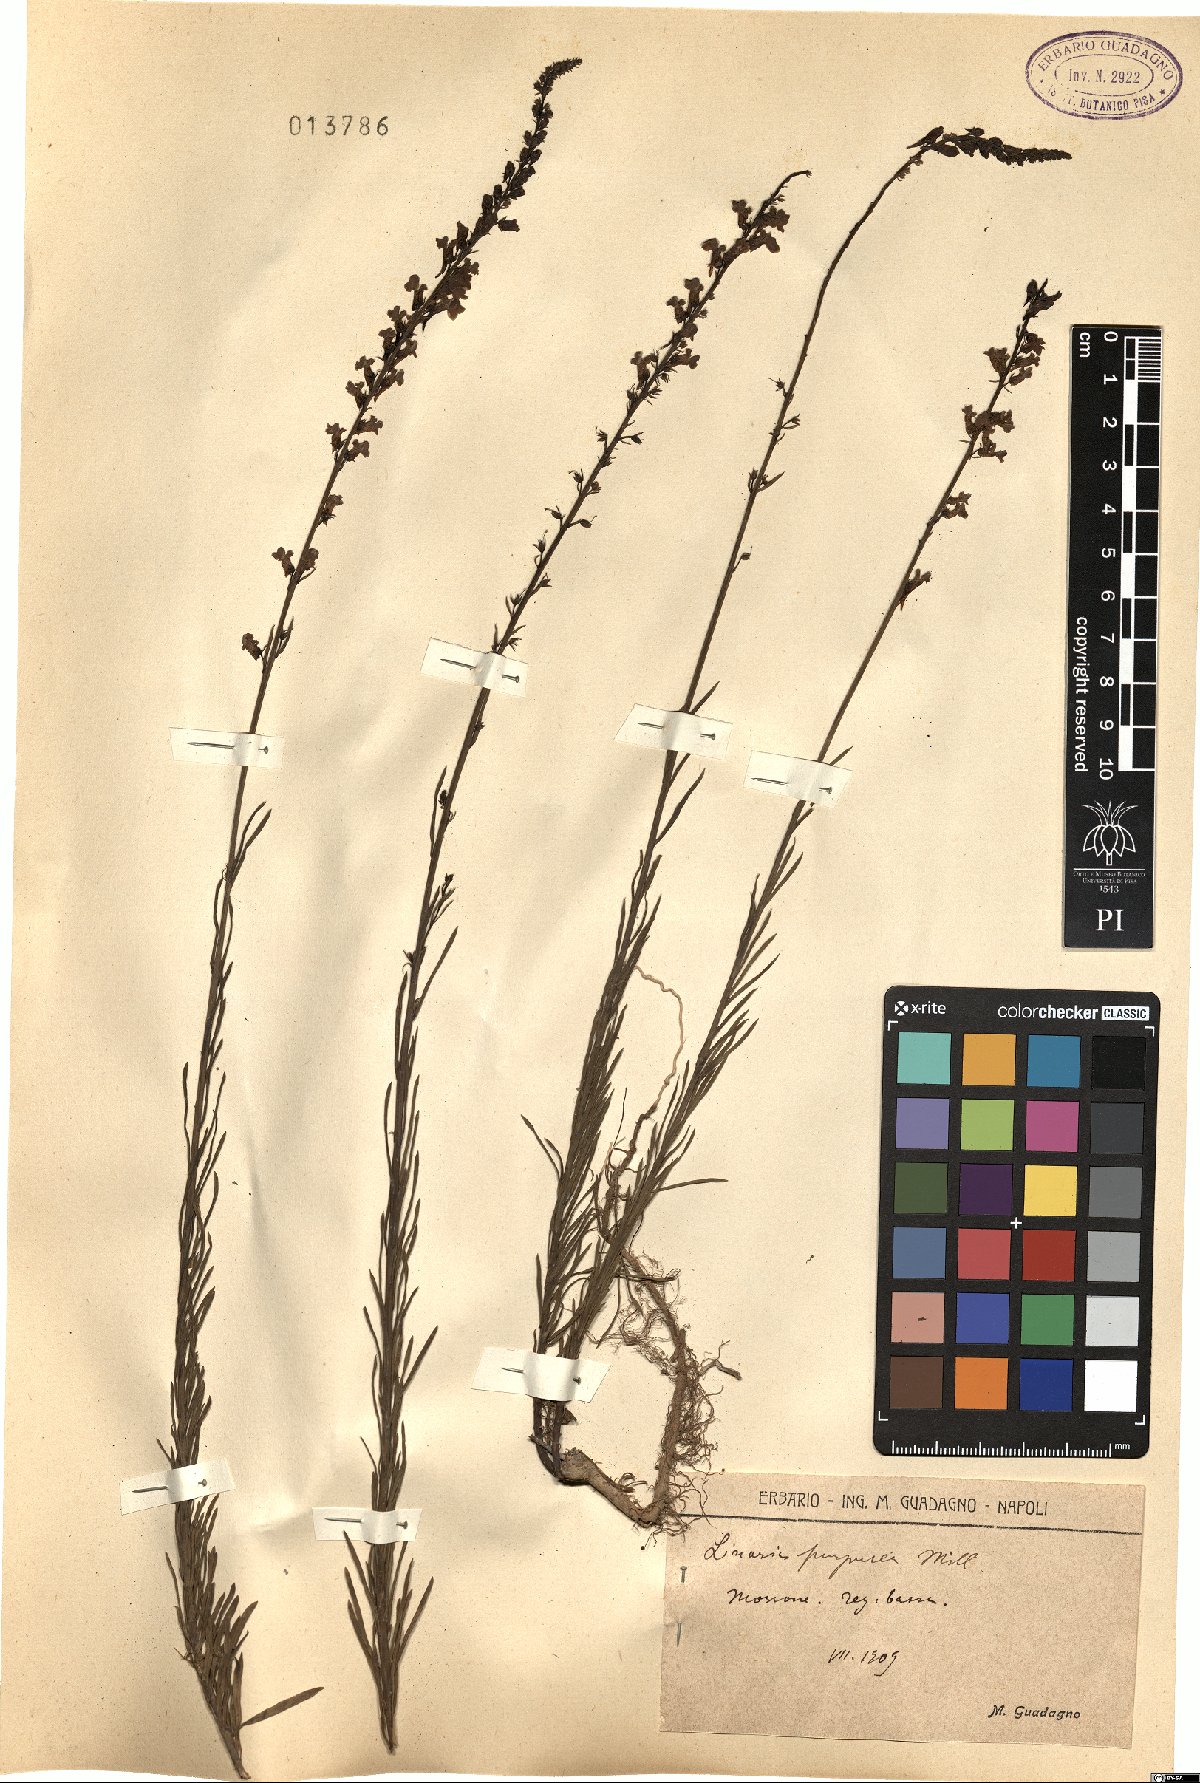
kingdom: Plantae
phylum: Tracheophyta
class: Magnoliopsida
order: Lamiales
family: Plantaginaceae
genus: Linaria
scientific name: Linaria purpurea
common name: Purple toadflax
